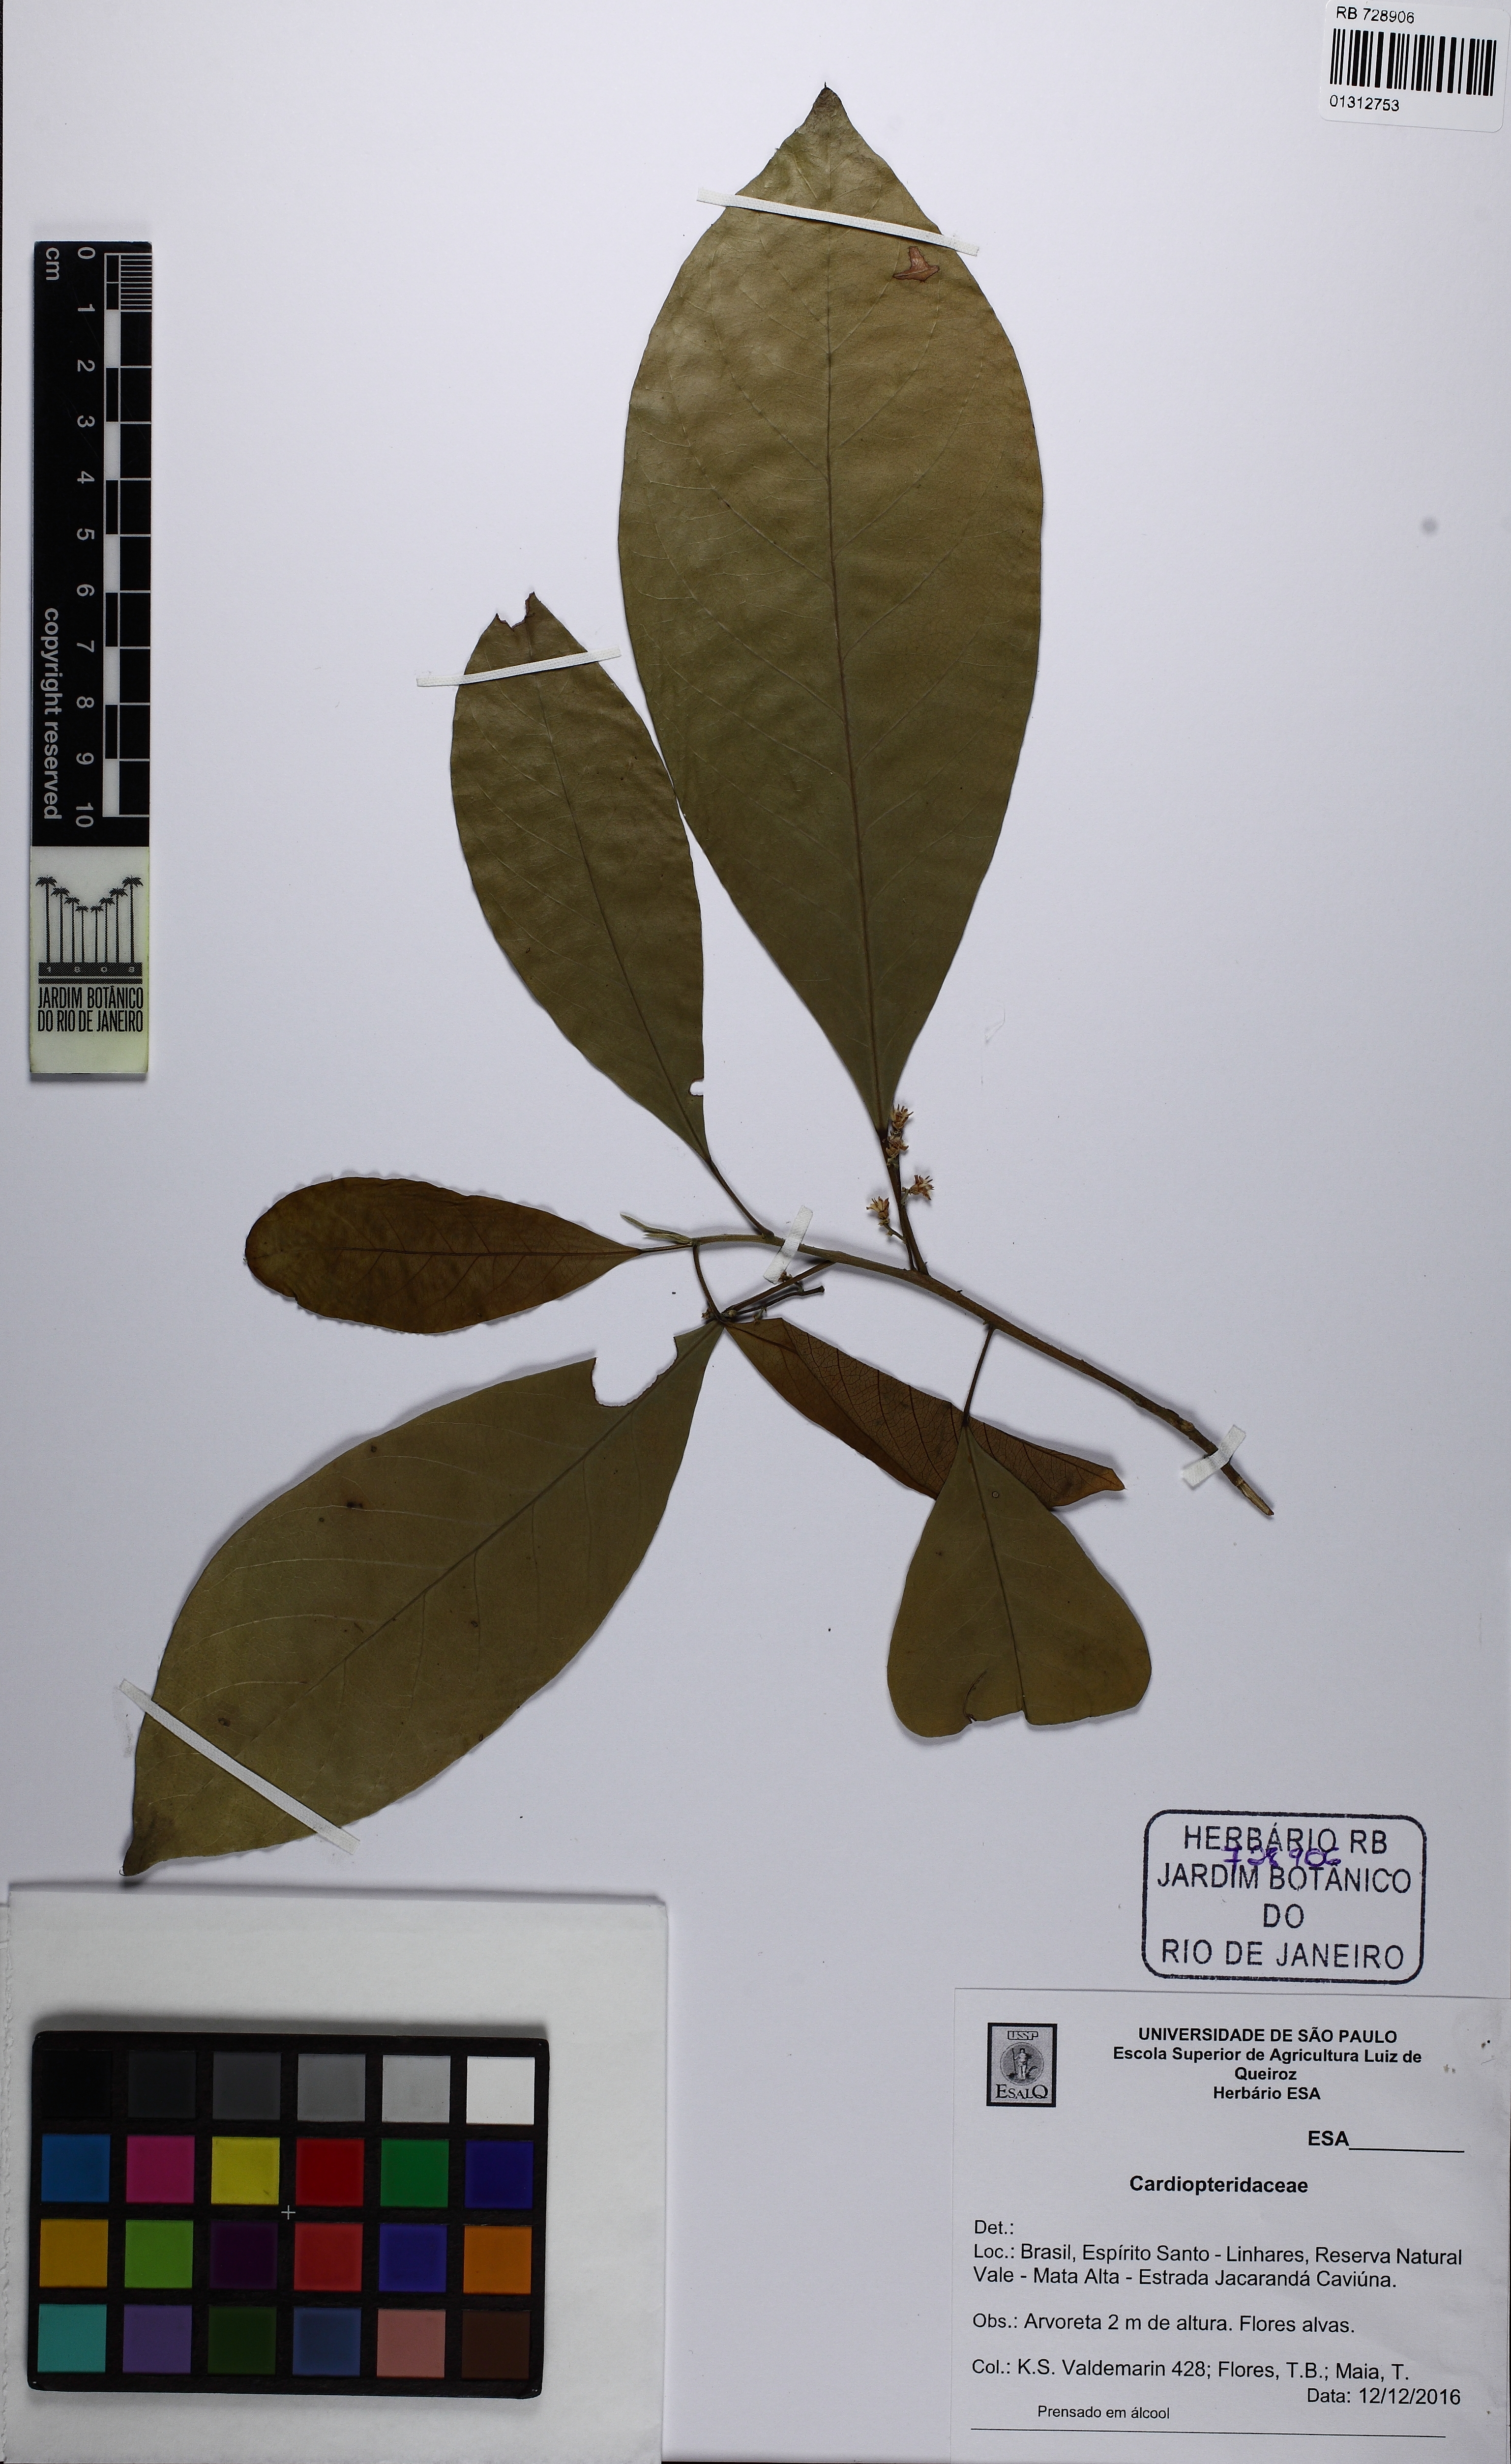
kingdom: Plantae
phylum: Tracheophyta
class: Magnoliopsida
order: Cardiopteridales
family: Cardiopteridaceae
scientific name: Cardiopteridaceae
